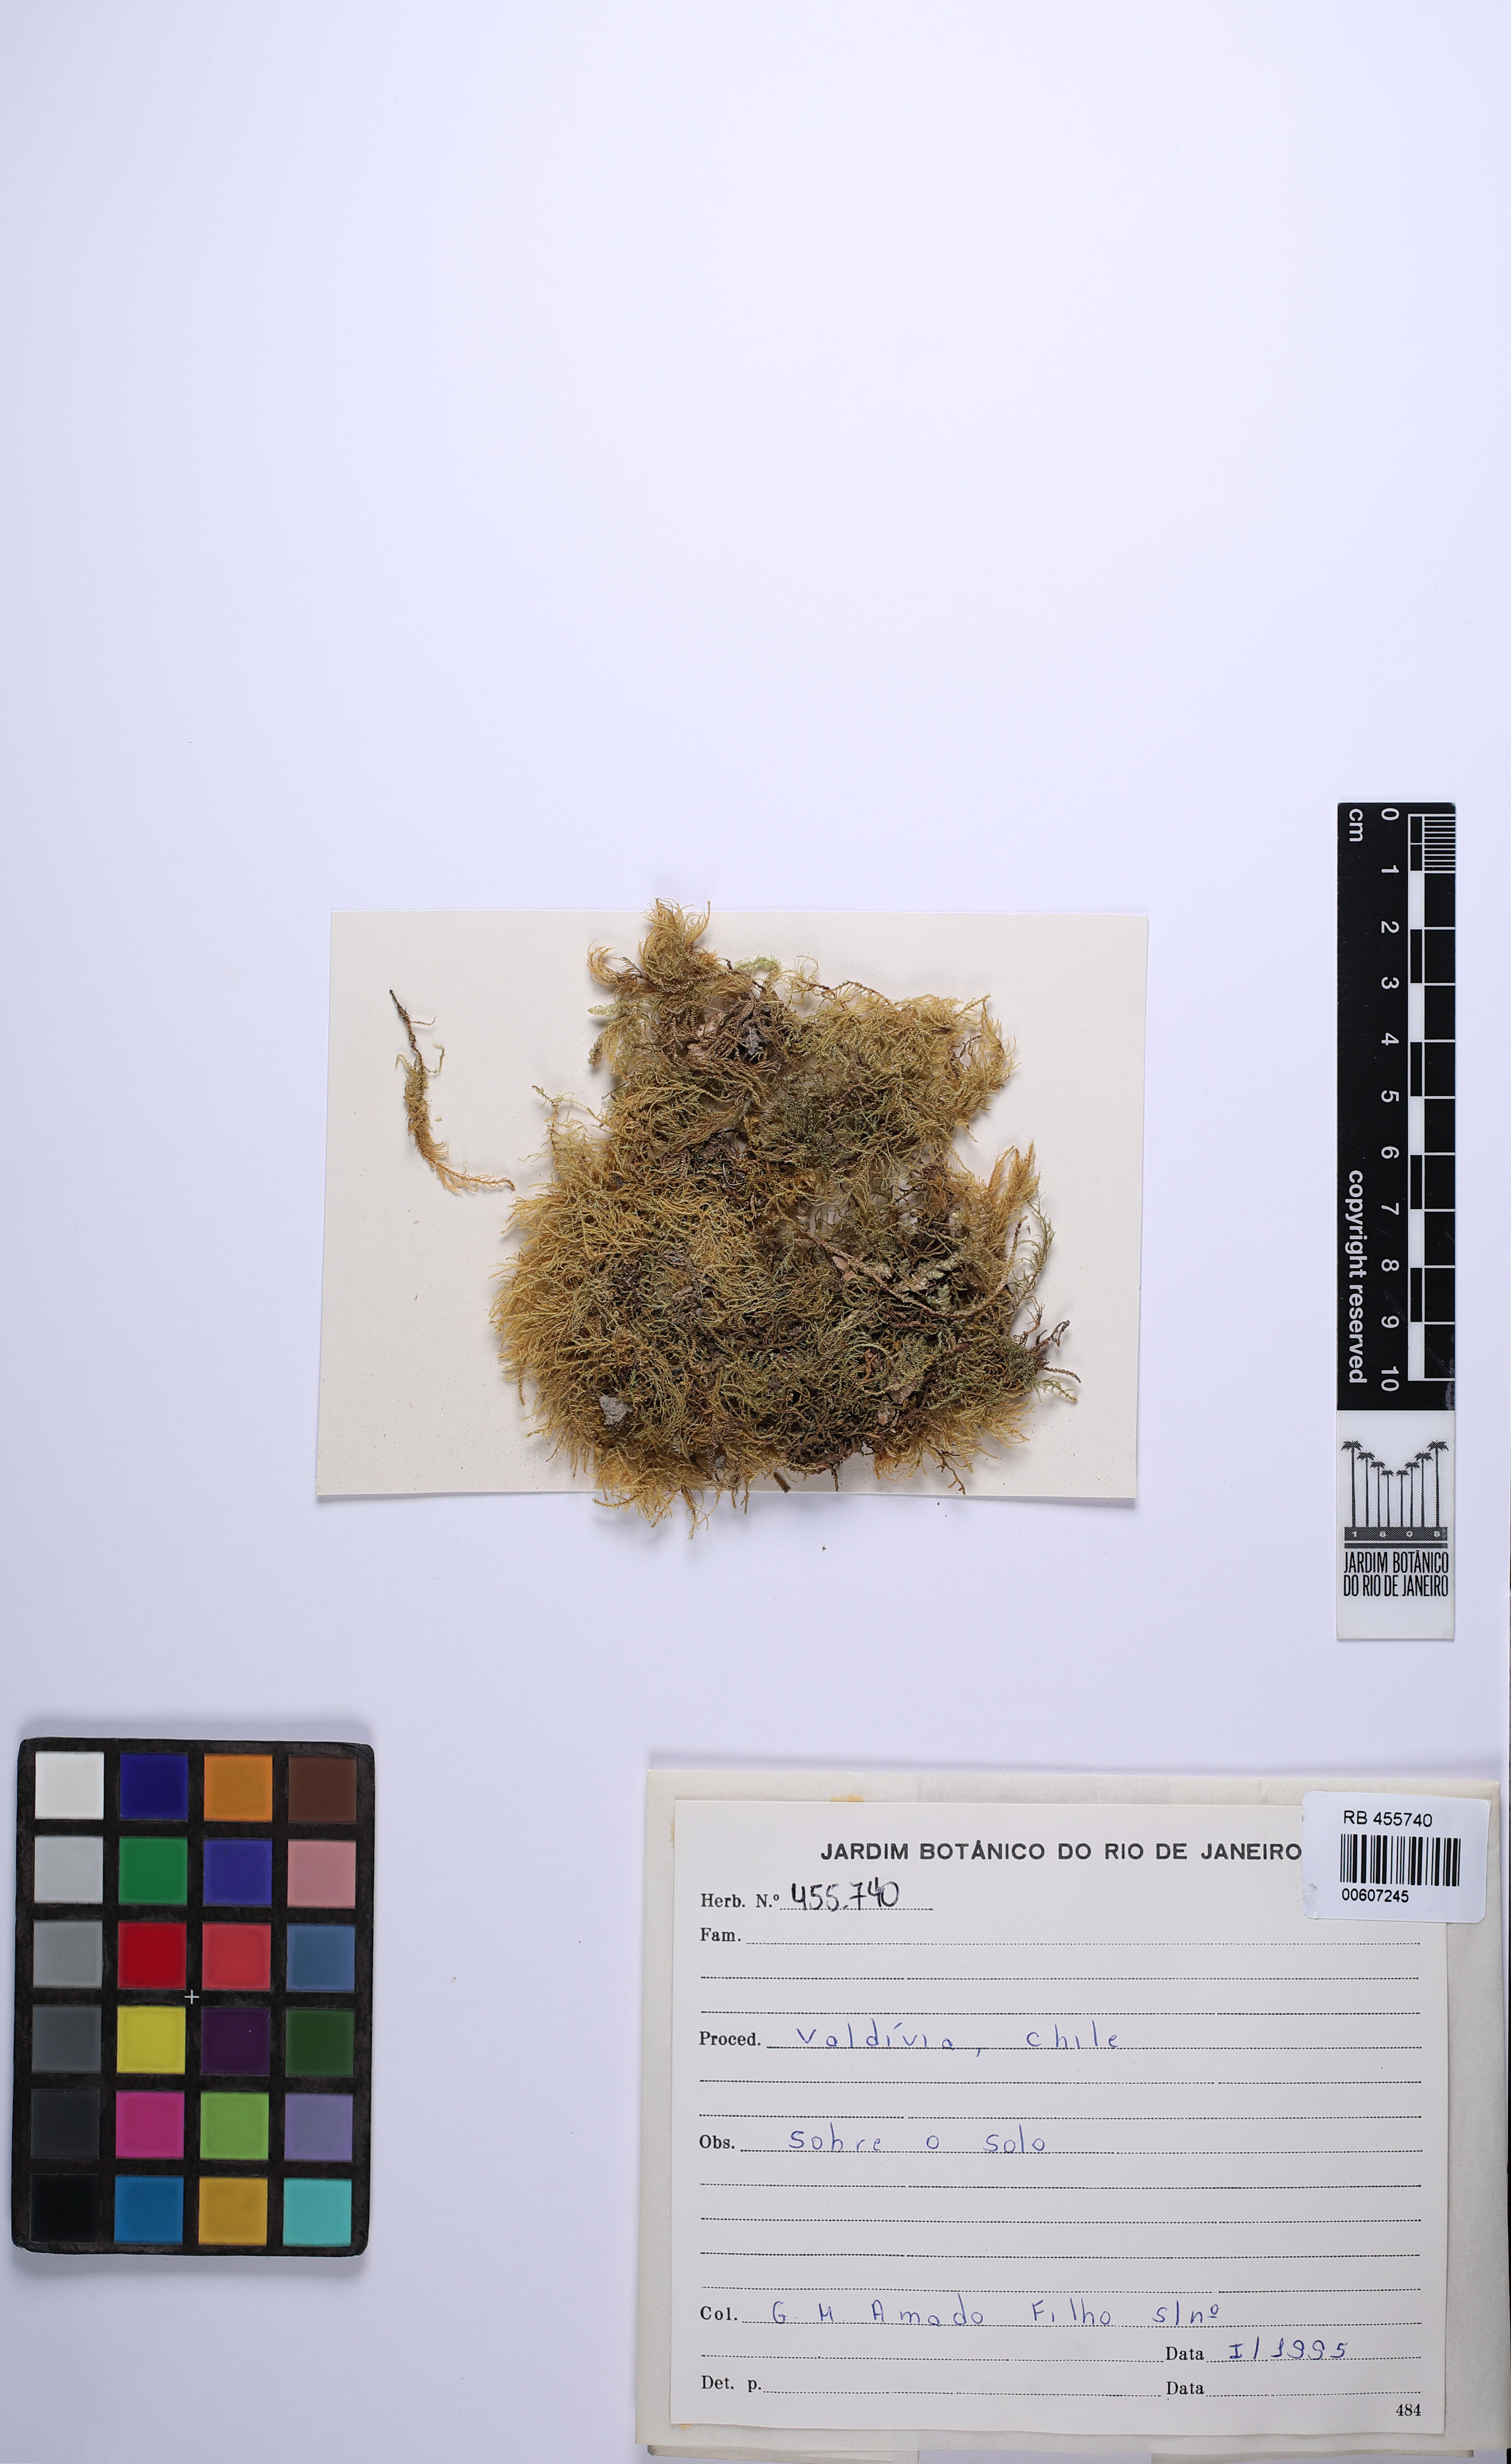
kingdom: Plantae
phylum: Tracheophyta
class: Lycopodiopsida
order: Lycopodiales
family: Lycopodiaceae
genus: Phlegmariurus
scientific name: Phlegmariurus pungentifolius
